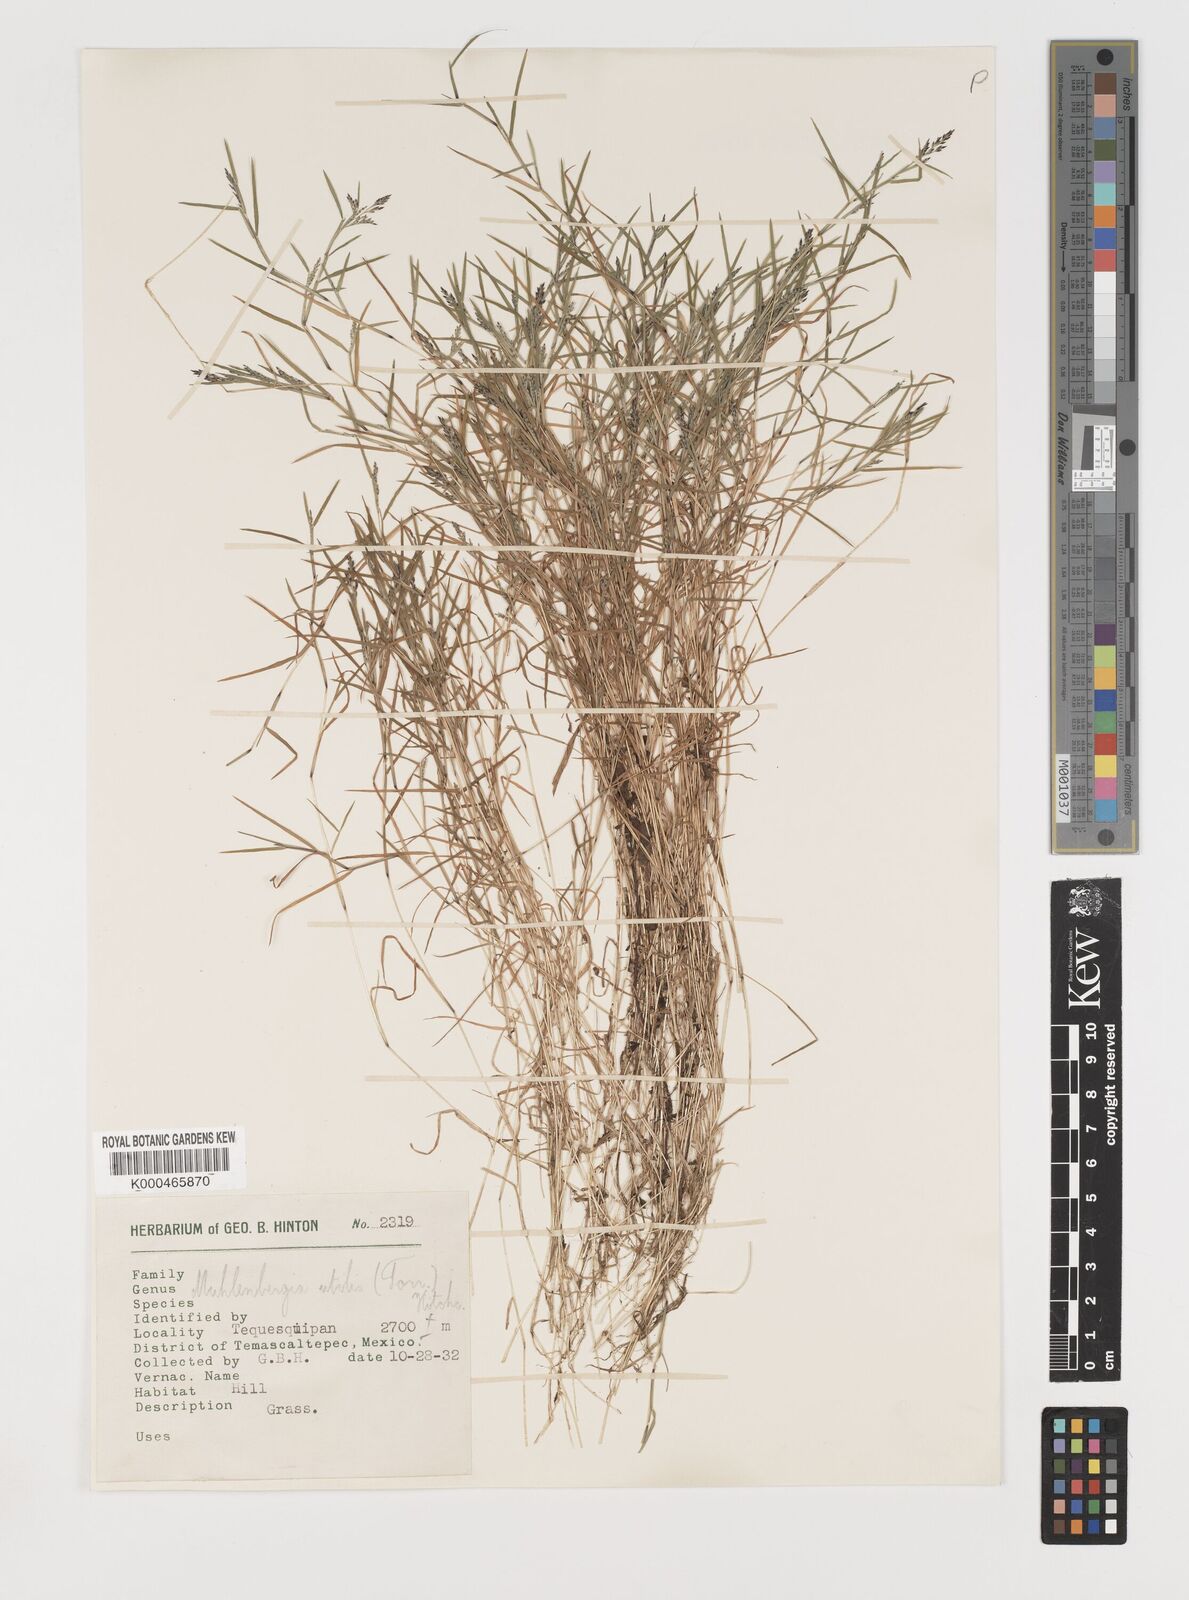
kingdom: Plantae
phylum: Tracheophyta
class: Liliopsida
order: Poales
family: Poaceae
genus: Muhlenbergia
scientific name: Muhlenbergia utilis
